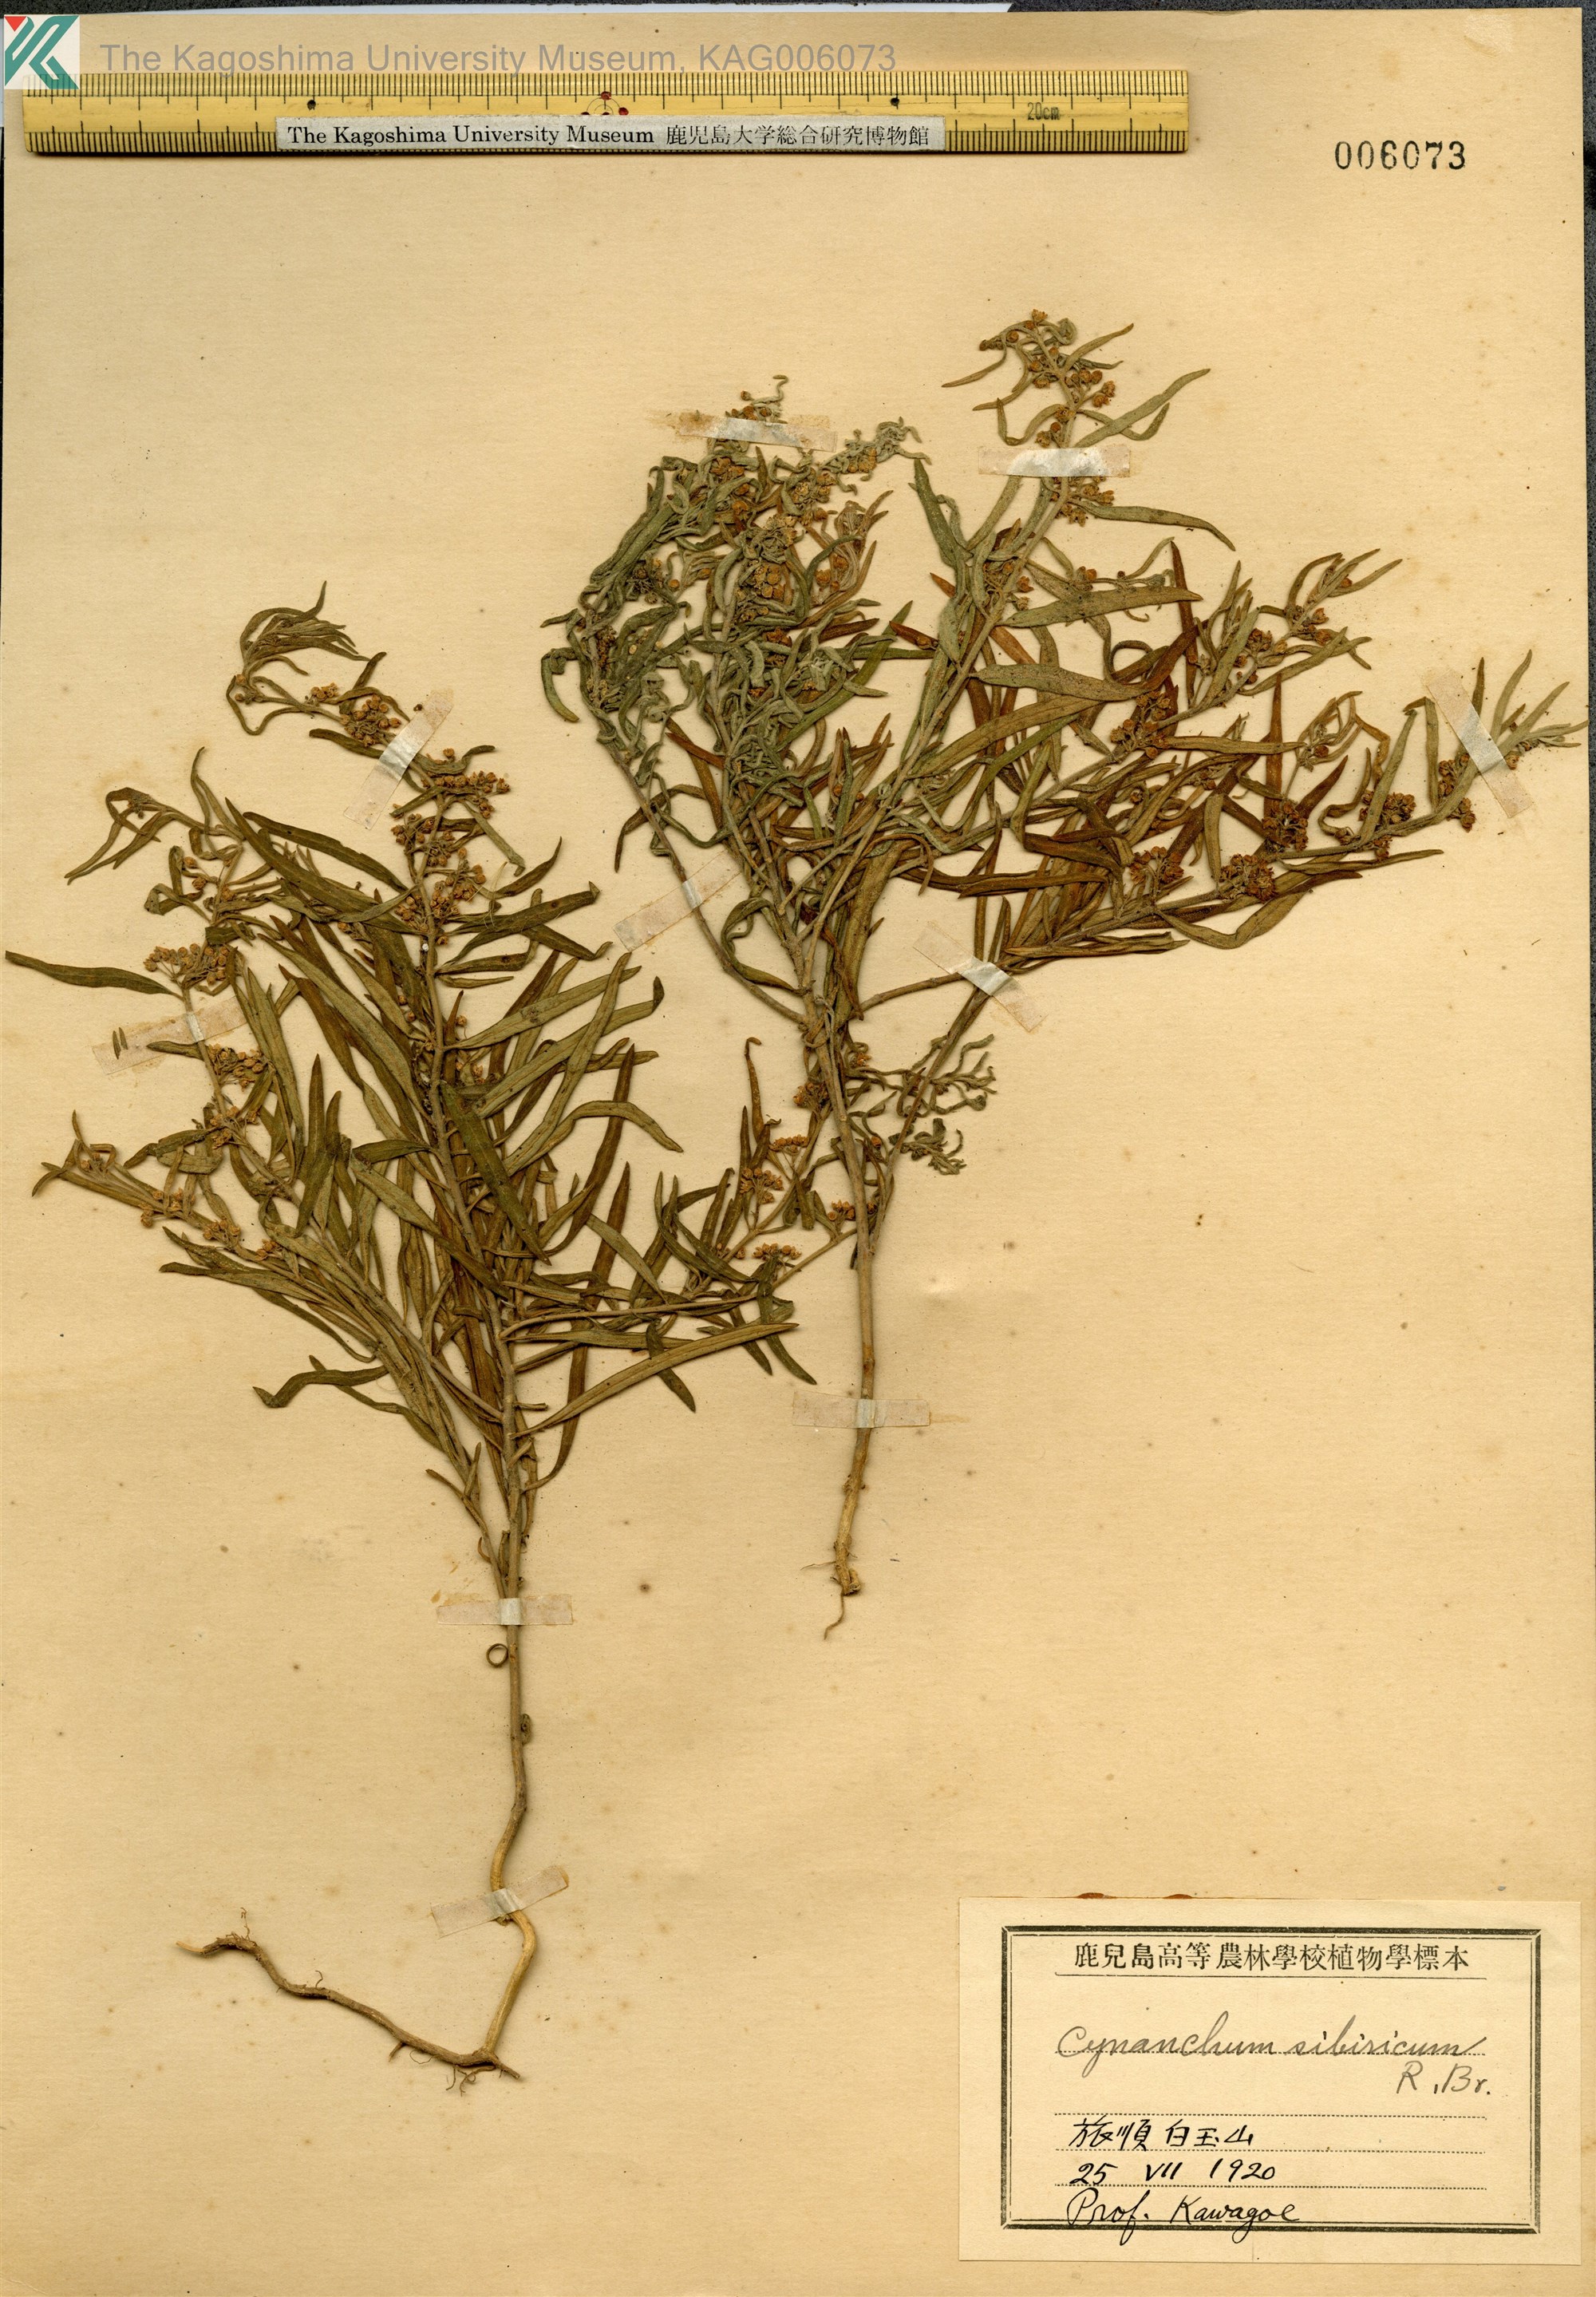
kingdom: Plantae
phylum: Tracheophyta
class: Magnoliopsida
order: Gentianales
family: Apocynaceae
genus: Cynanchum
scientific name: Cynanchum thesioides
